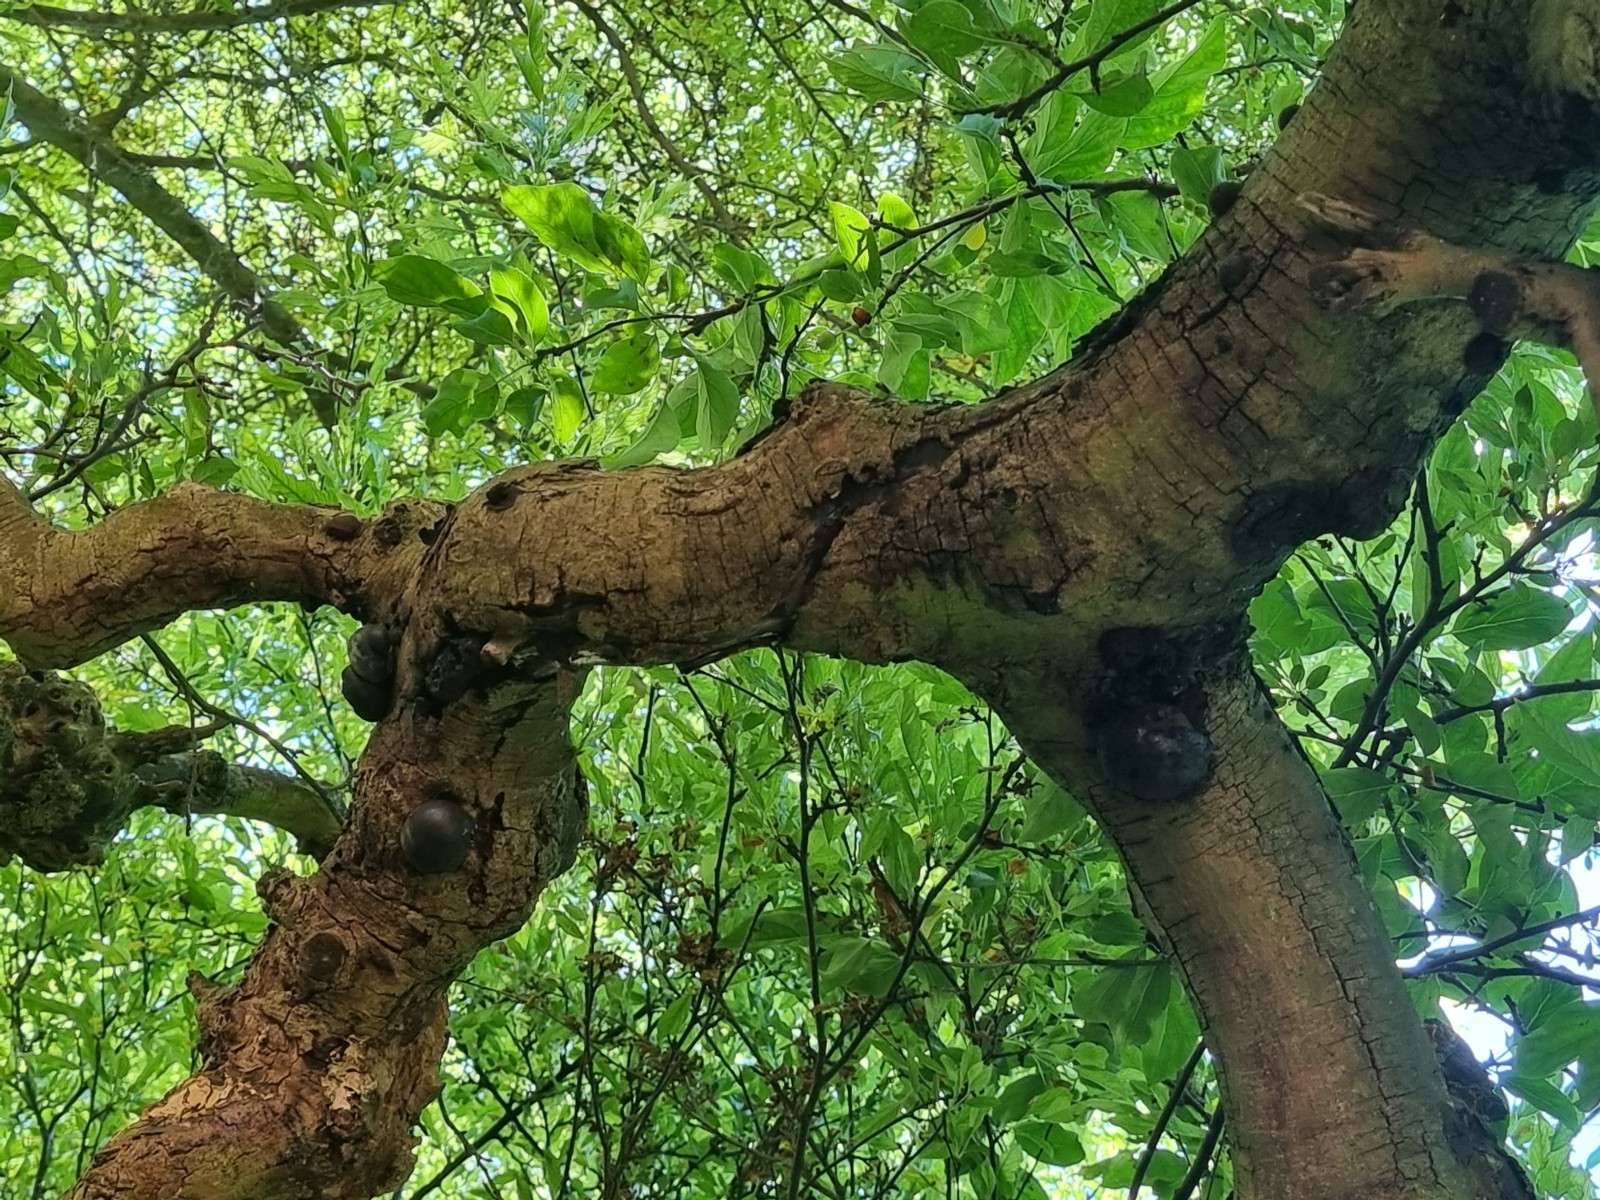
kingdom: Fungi
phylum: Ascomycota
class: Sordariomycetes
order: Xylariales
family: Hypoxylaceae
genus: Daldinia
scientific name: Daldinia concentrica
